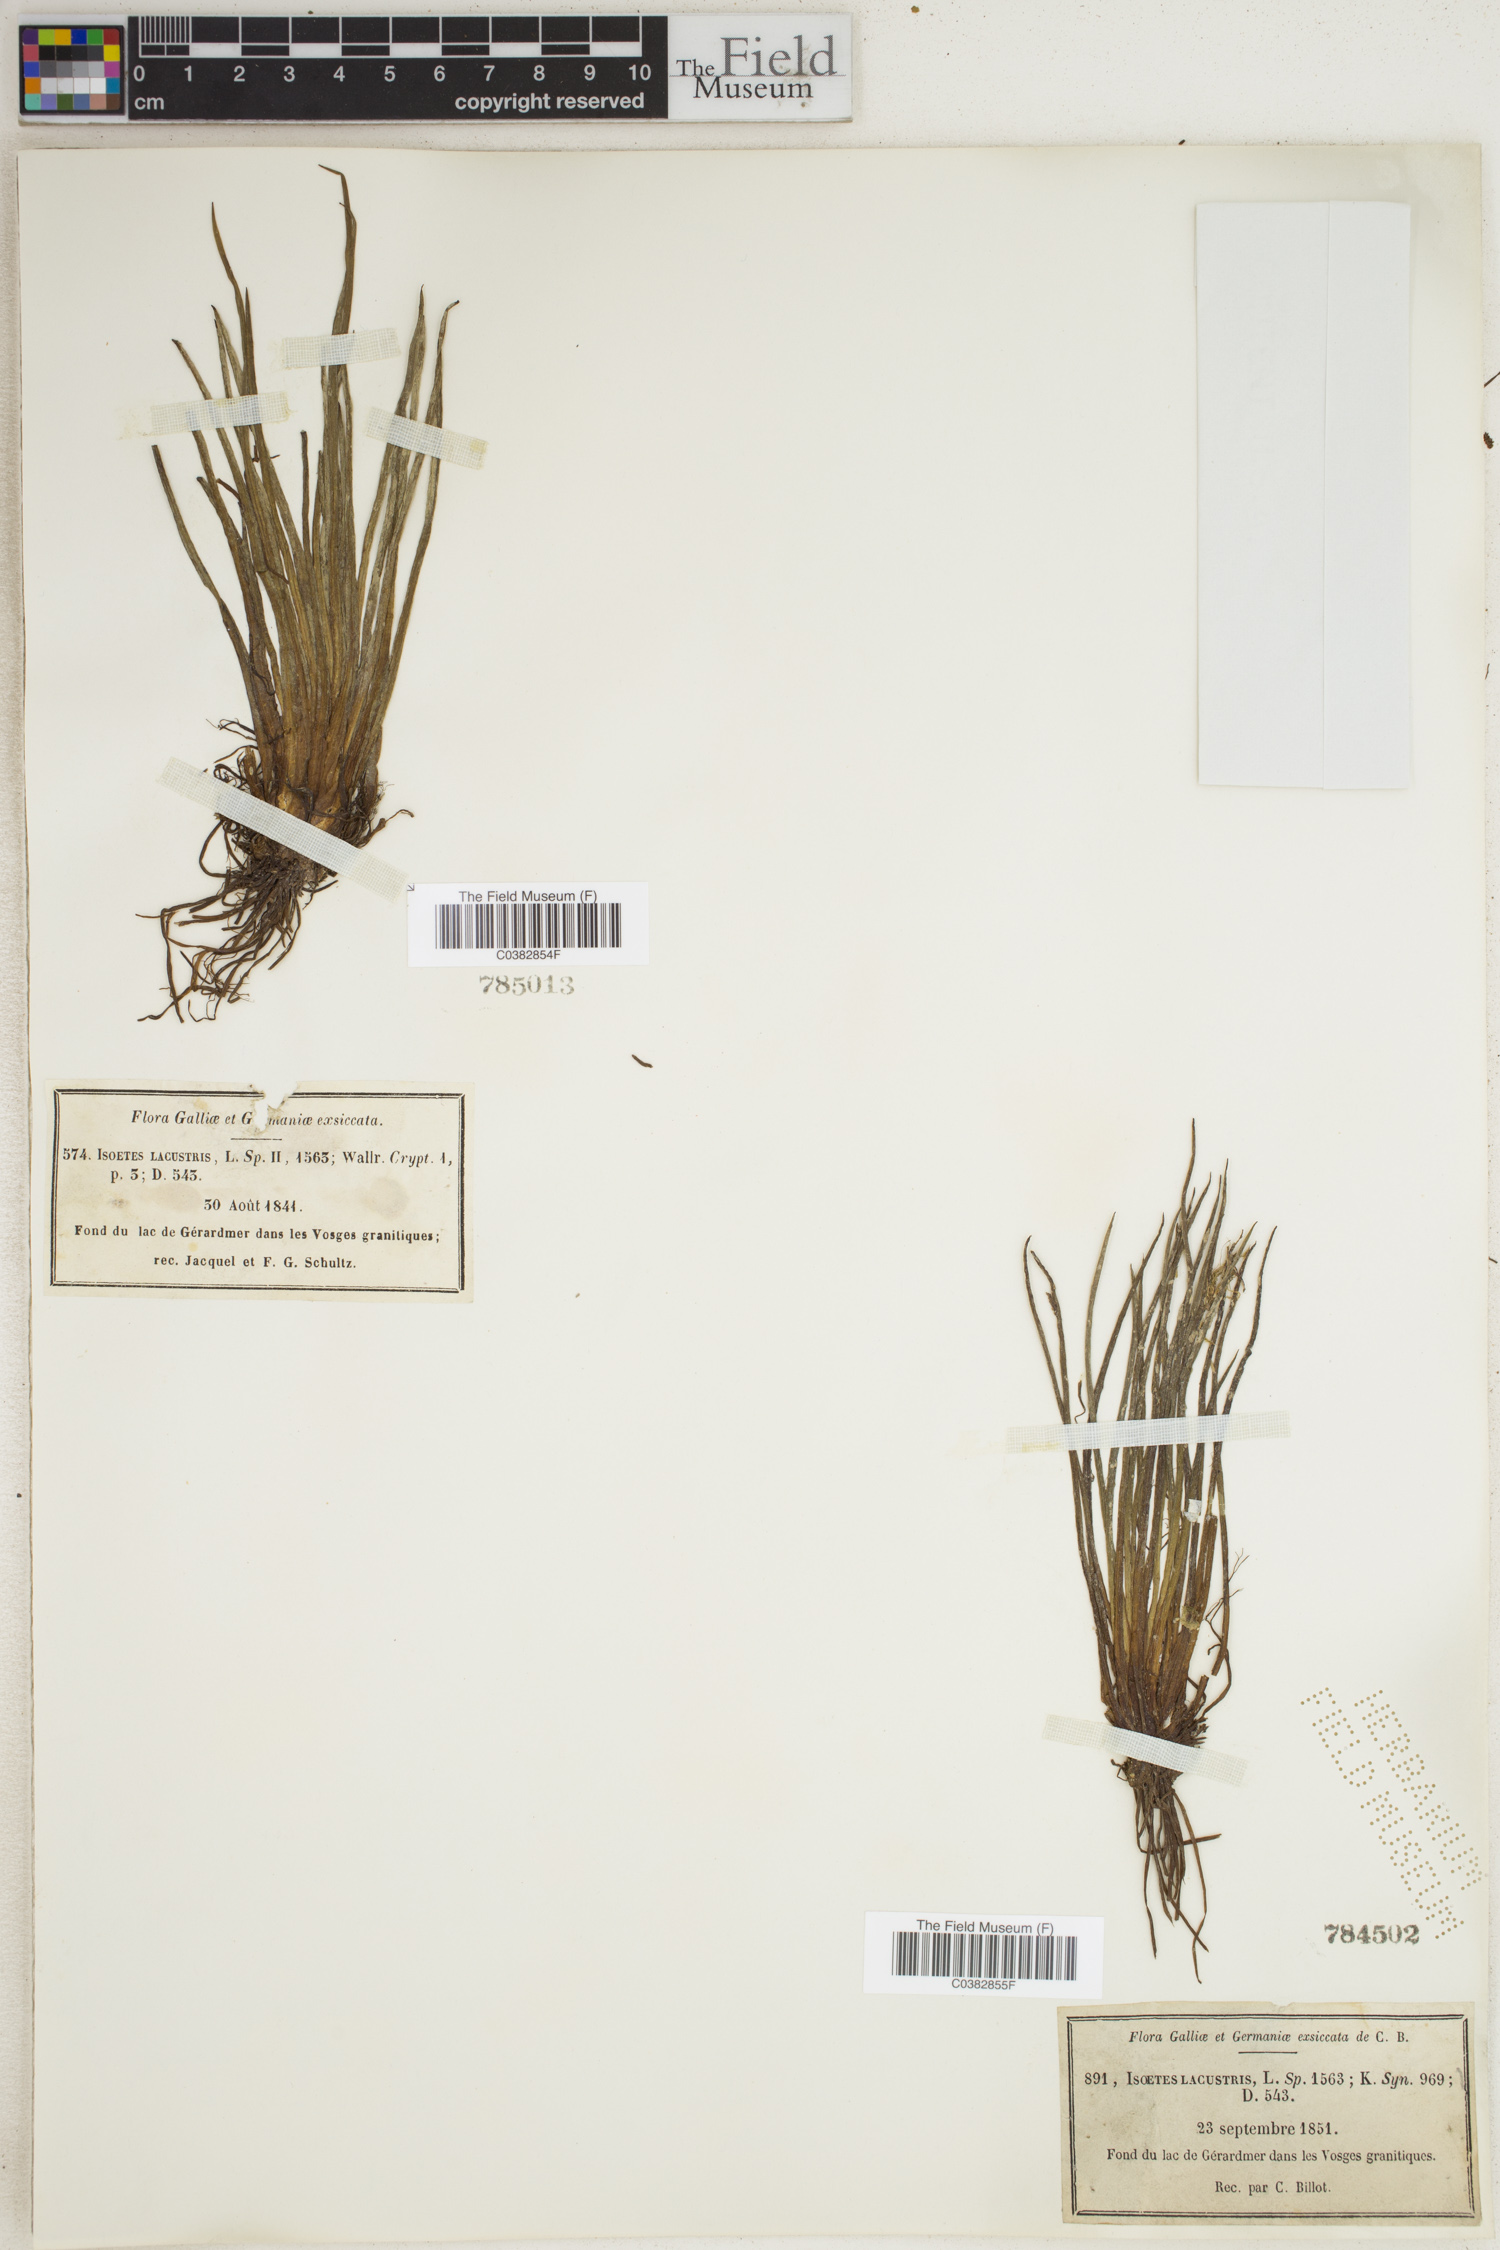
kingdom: Plantae
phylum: Tracheophyta
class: Lycopodiopsida
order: Isoetales
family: Isoetaceae
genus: Isoetes
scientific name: Isoetes lacustris
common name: Common quillwort
